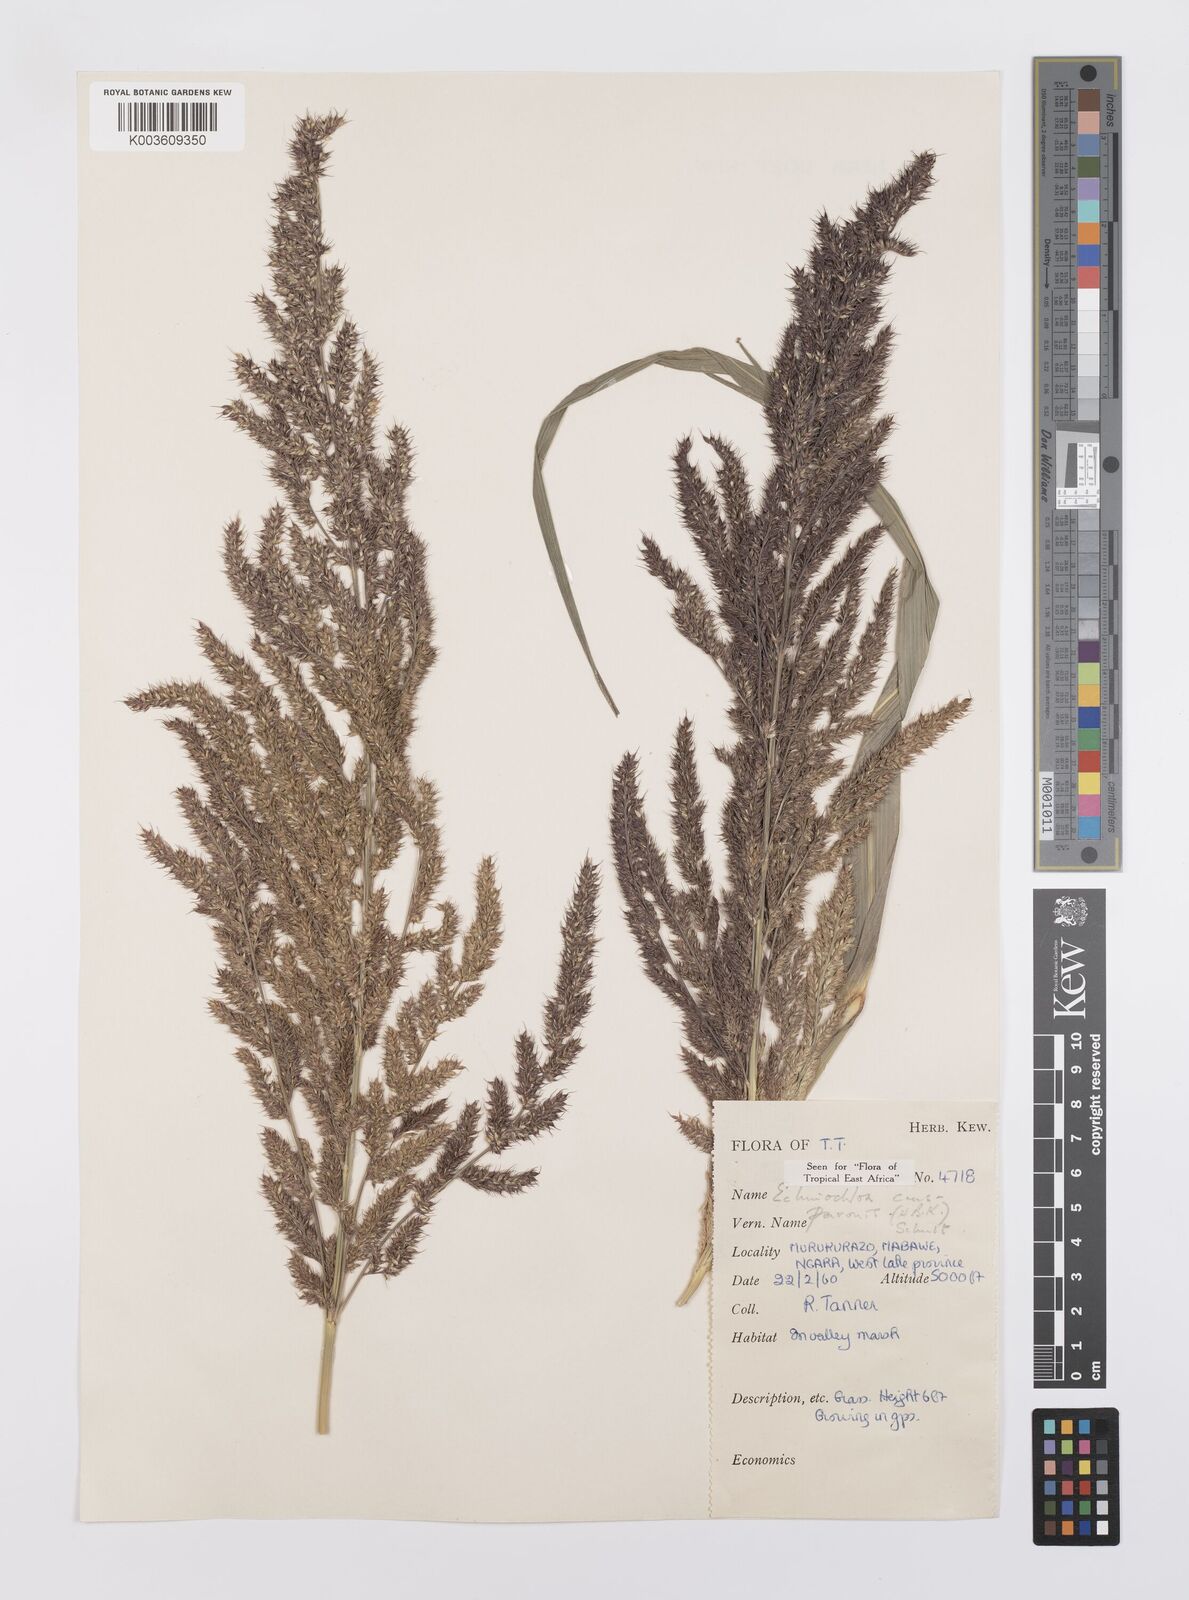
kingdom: Plantae
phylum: Tracheophyta
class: Liliopsida
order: Poales
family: Poaceae
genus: Echinochloa
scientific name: Echinochloa crus-pavonis
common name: Gulf cockspur grass
